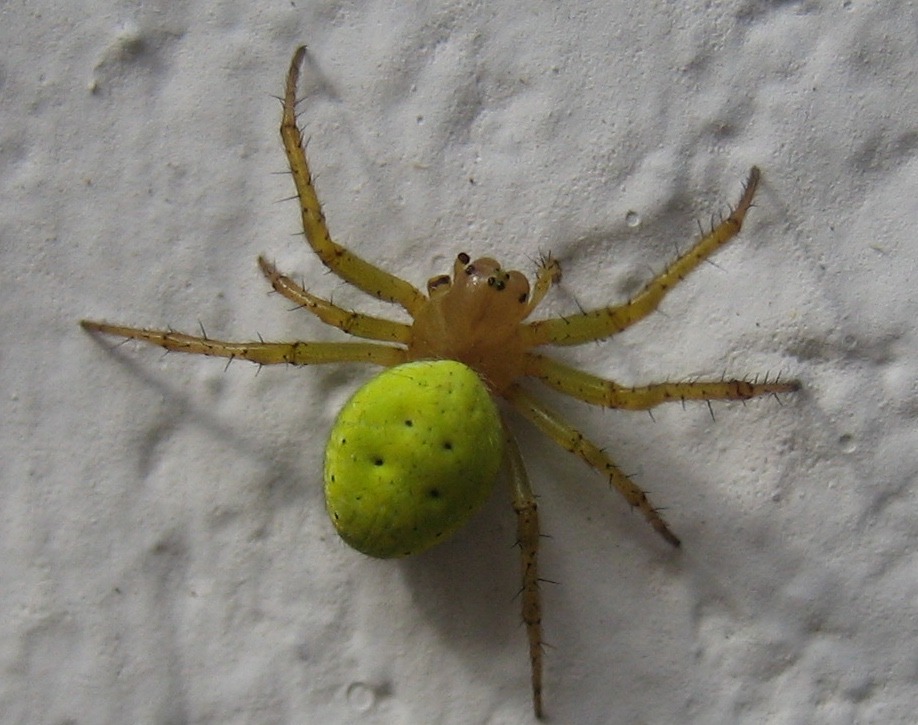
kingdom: Animalia
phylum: Arthropoda
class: Arachnida
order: Araneae
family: Araneidae
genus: Araniella
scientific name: Araniella
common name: Agurkeedderkopslægten
